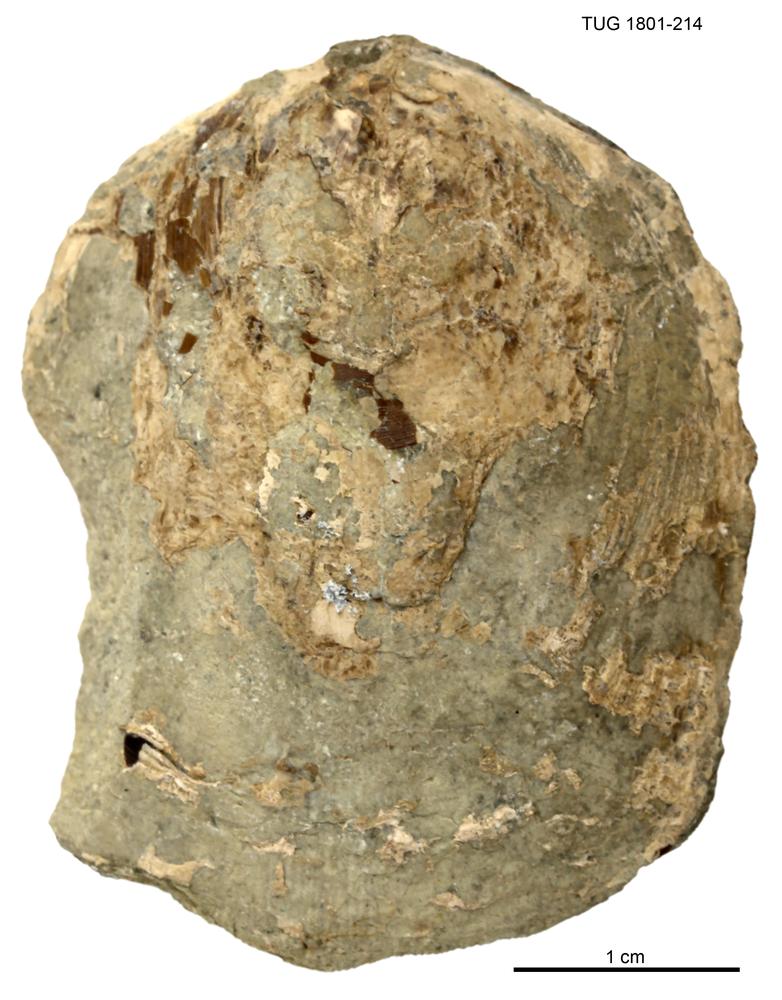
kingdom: Animalia
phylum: Brachiopoda
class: Lingulata
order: Lingulida
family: Pseudolingulidae
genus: Pseudolingula
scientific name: Pseudolingula Crania quadrata
